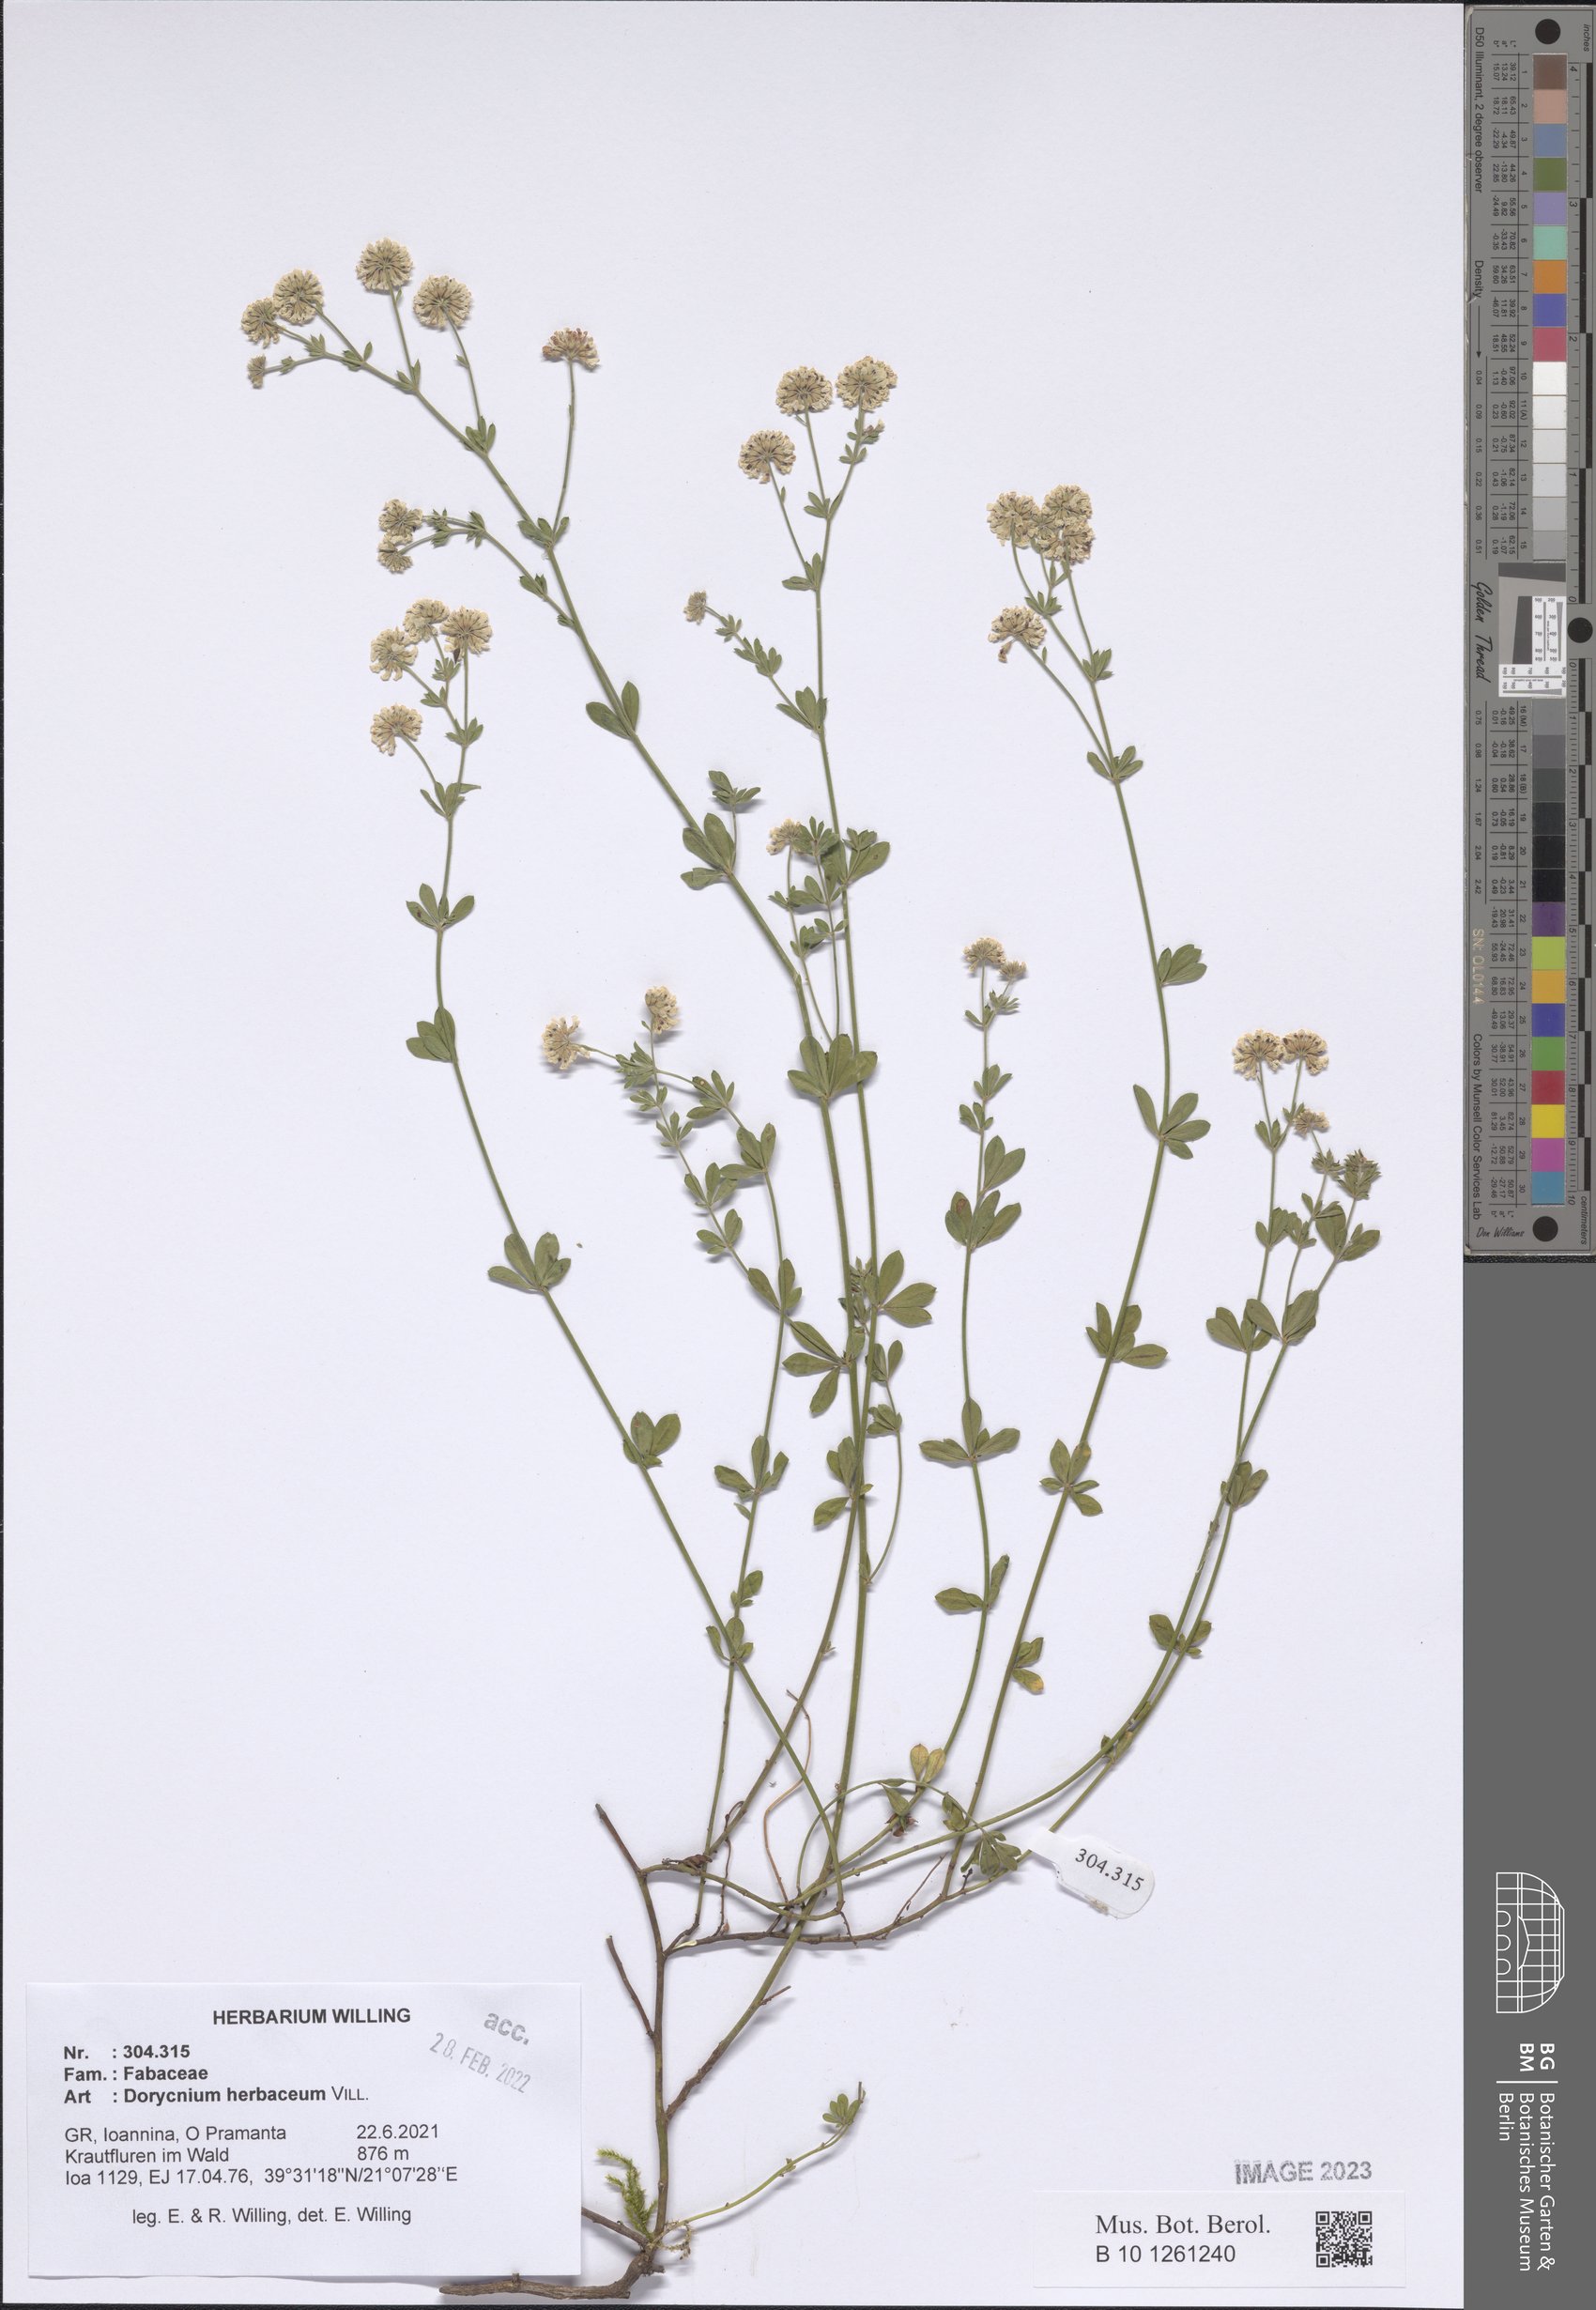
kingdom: Plantae
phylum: Tracheophyta
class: Magnoliopsida
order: Fabales
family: Fabaceae
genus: Lotus
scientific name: Lotus herbaceus
